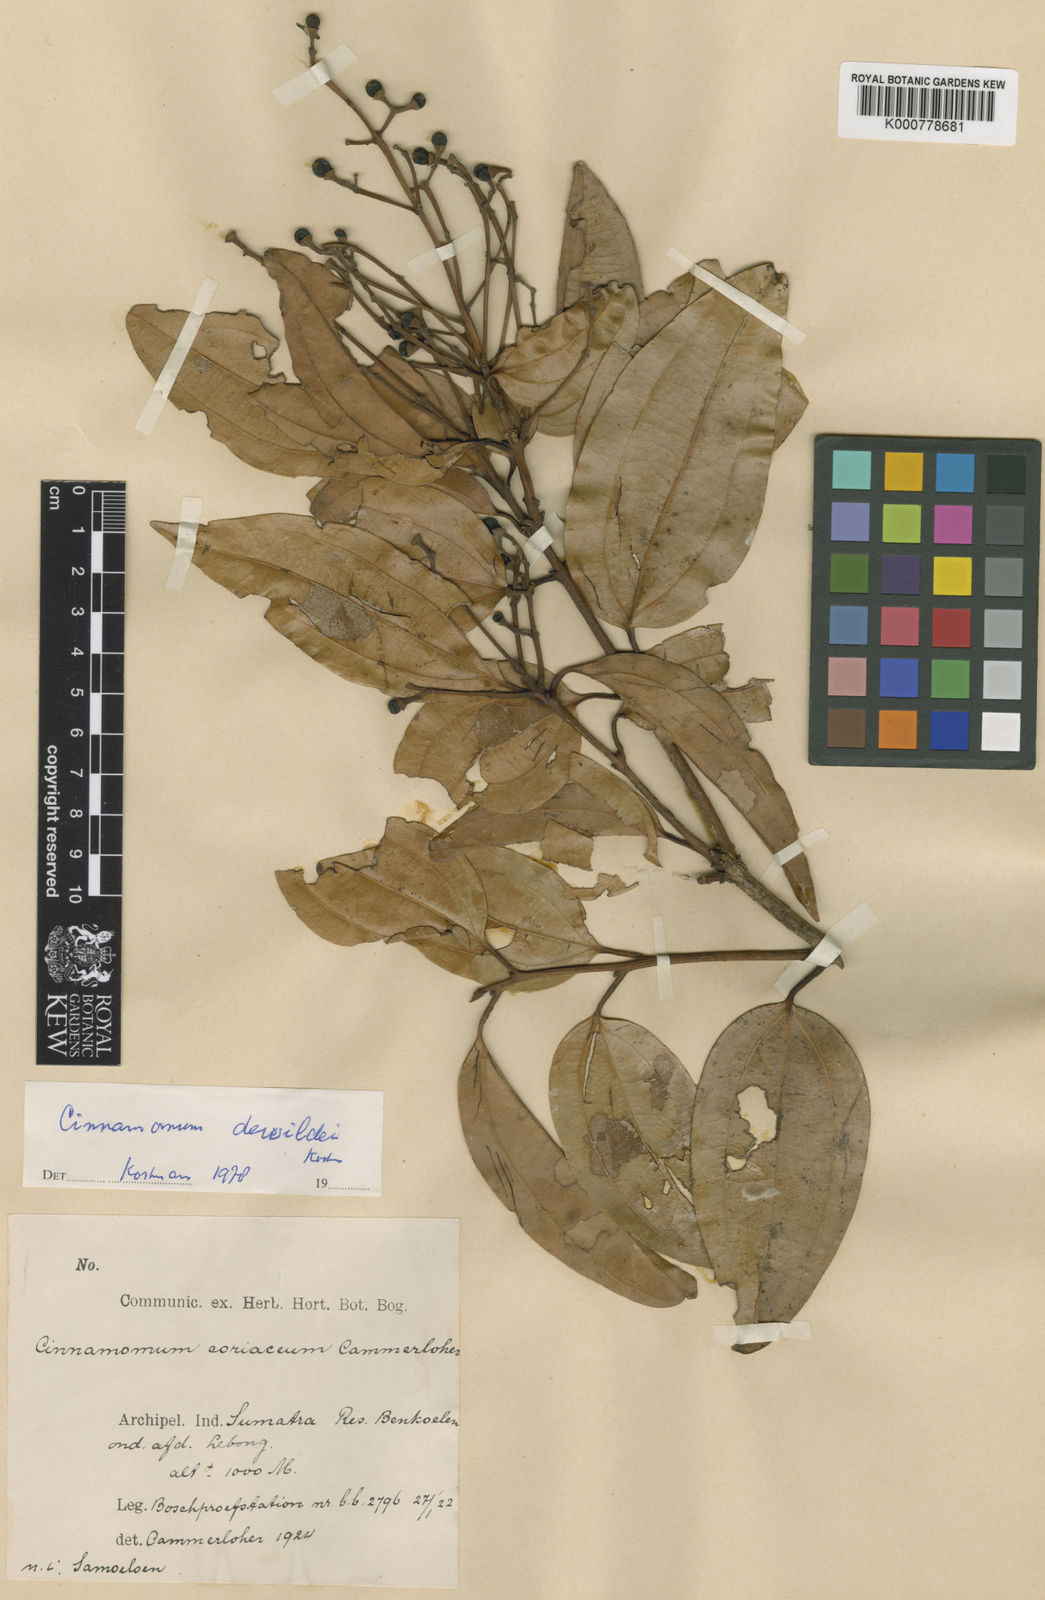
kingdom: Plantae
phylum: Tracheophyta
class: Magnoliopsida
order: Laurales
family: Lauraceae
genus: Cinnamomum
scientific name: Cinnamomum
